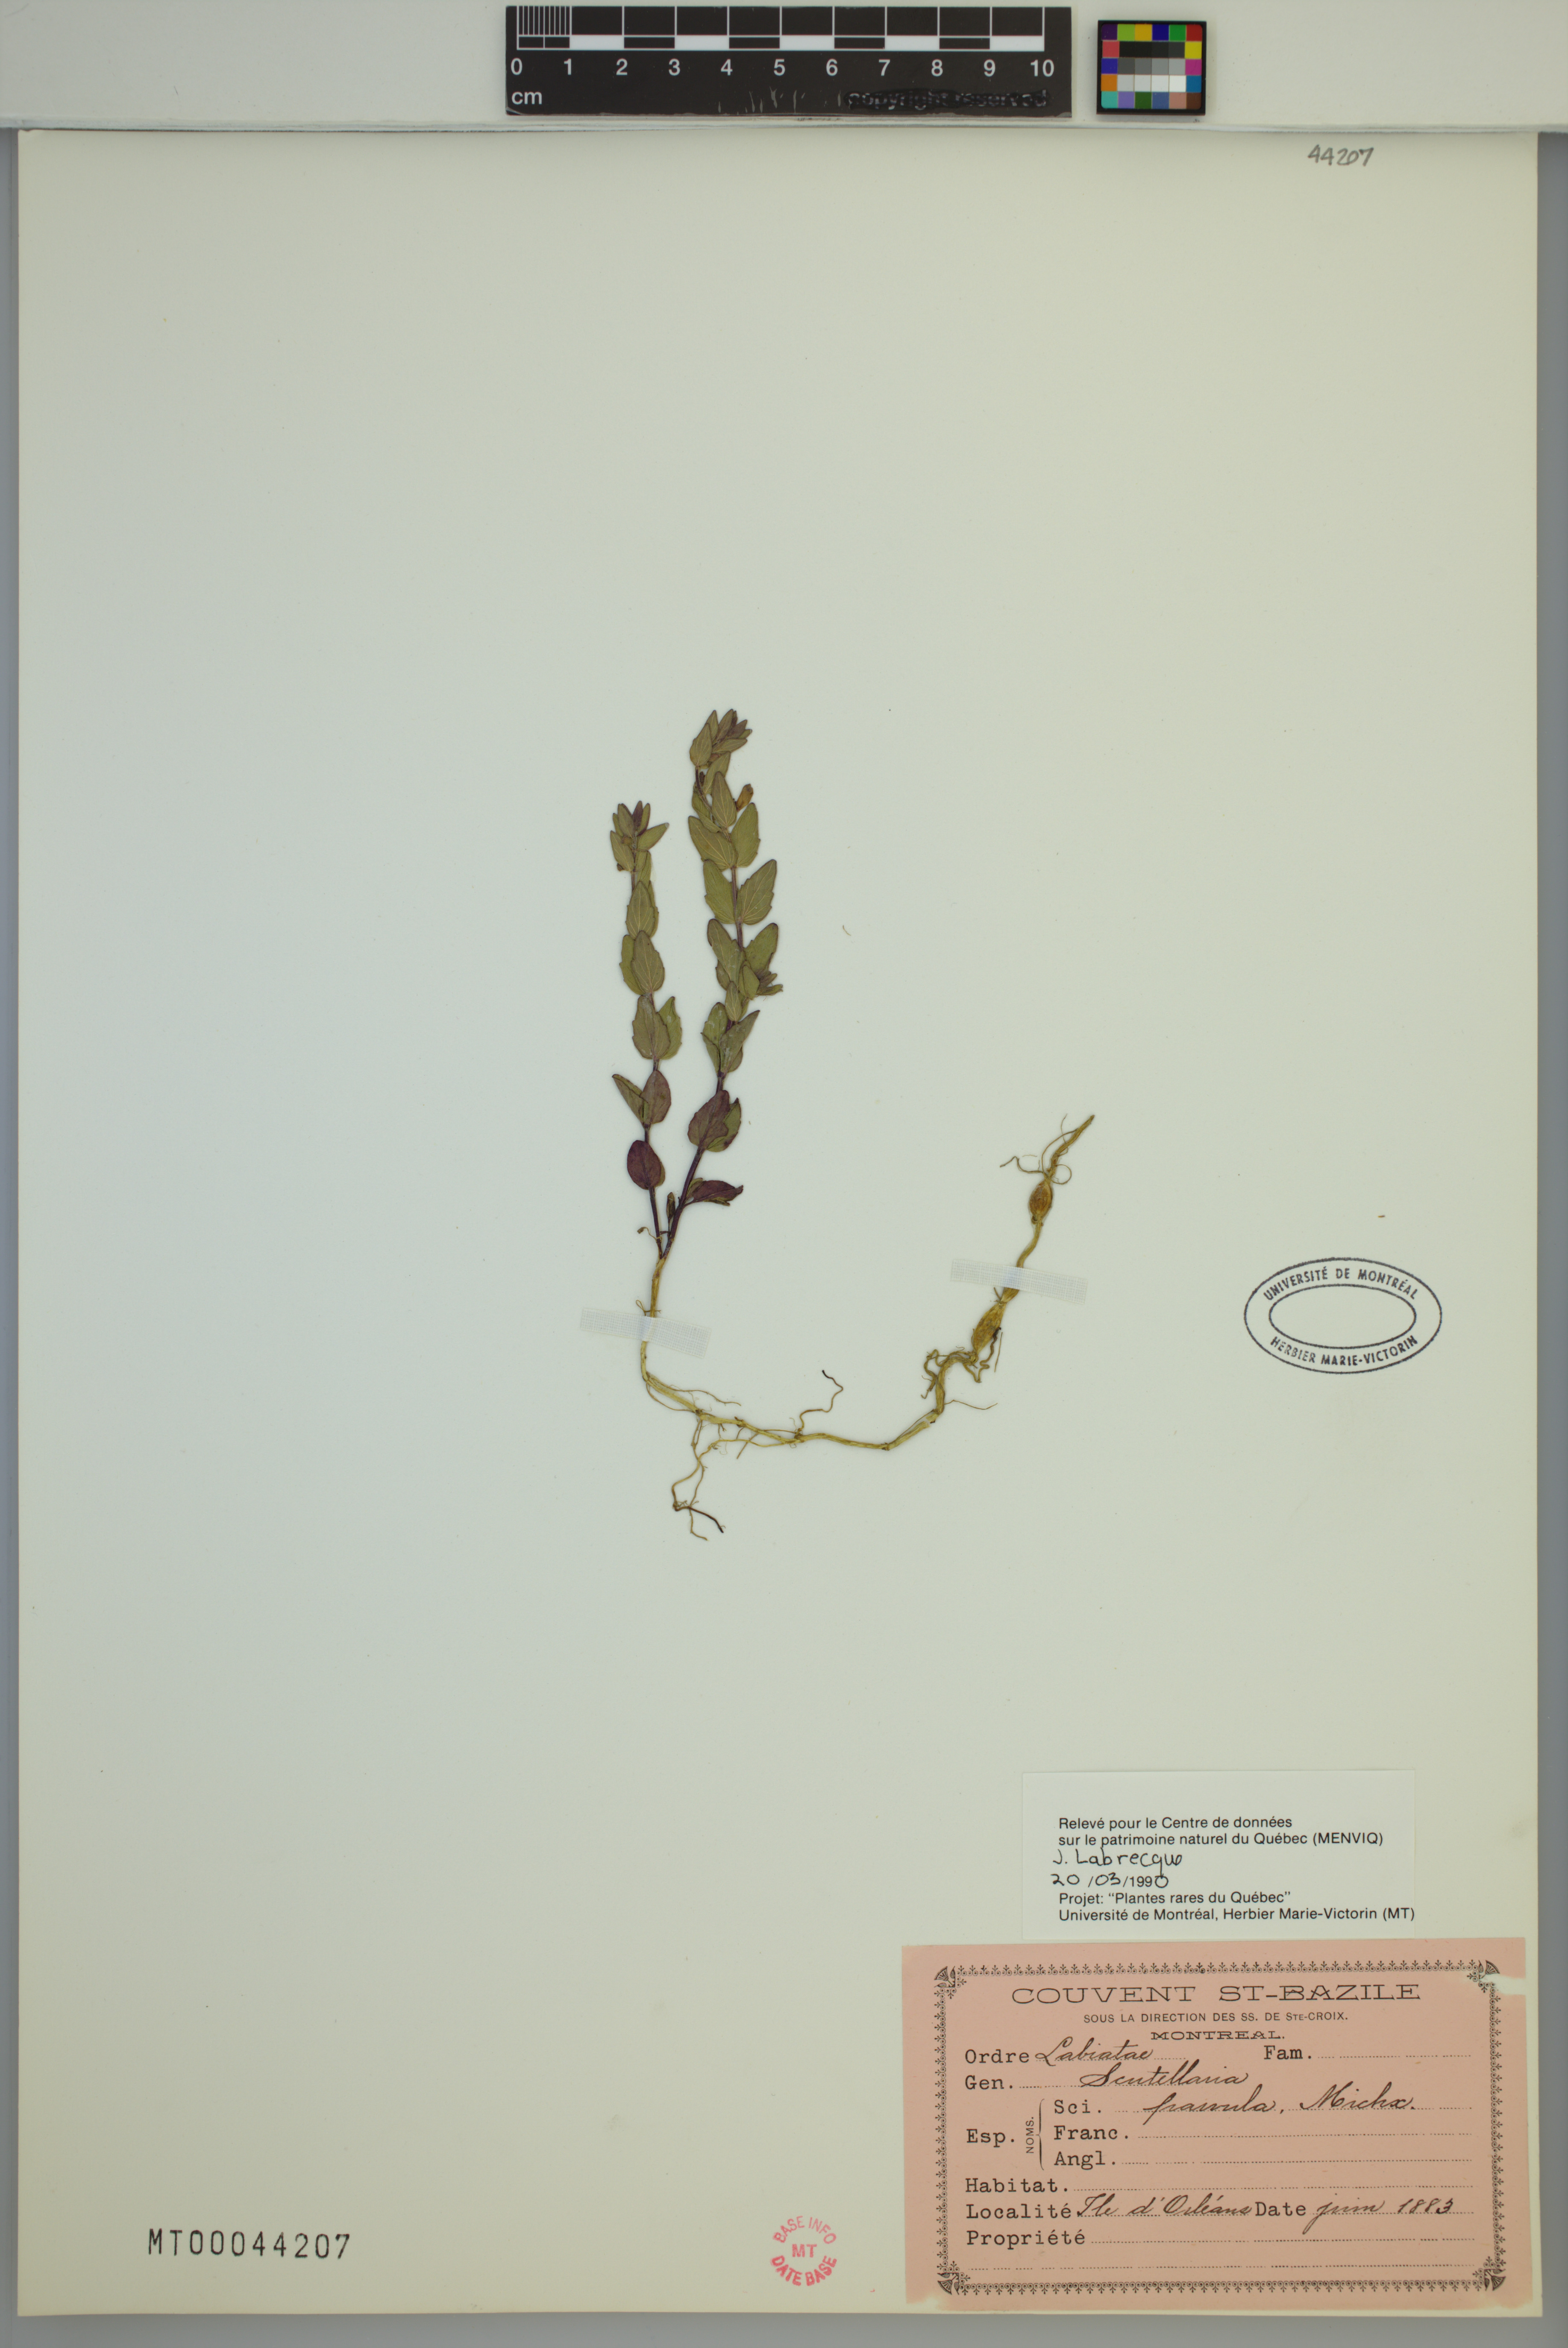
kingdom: Plantae
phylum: Tracheophyta
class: Magnoliopsida
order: Lamiales
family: Lamiaceae
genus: Scutellaria
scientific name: Scutellaria parvula
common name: Little scullcap
